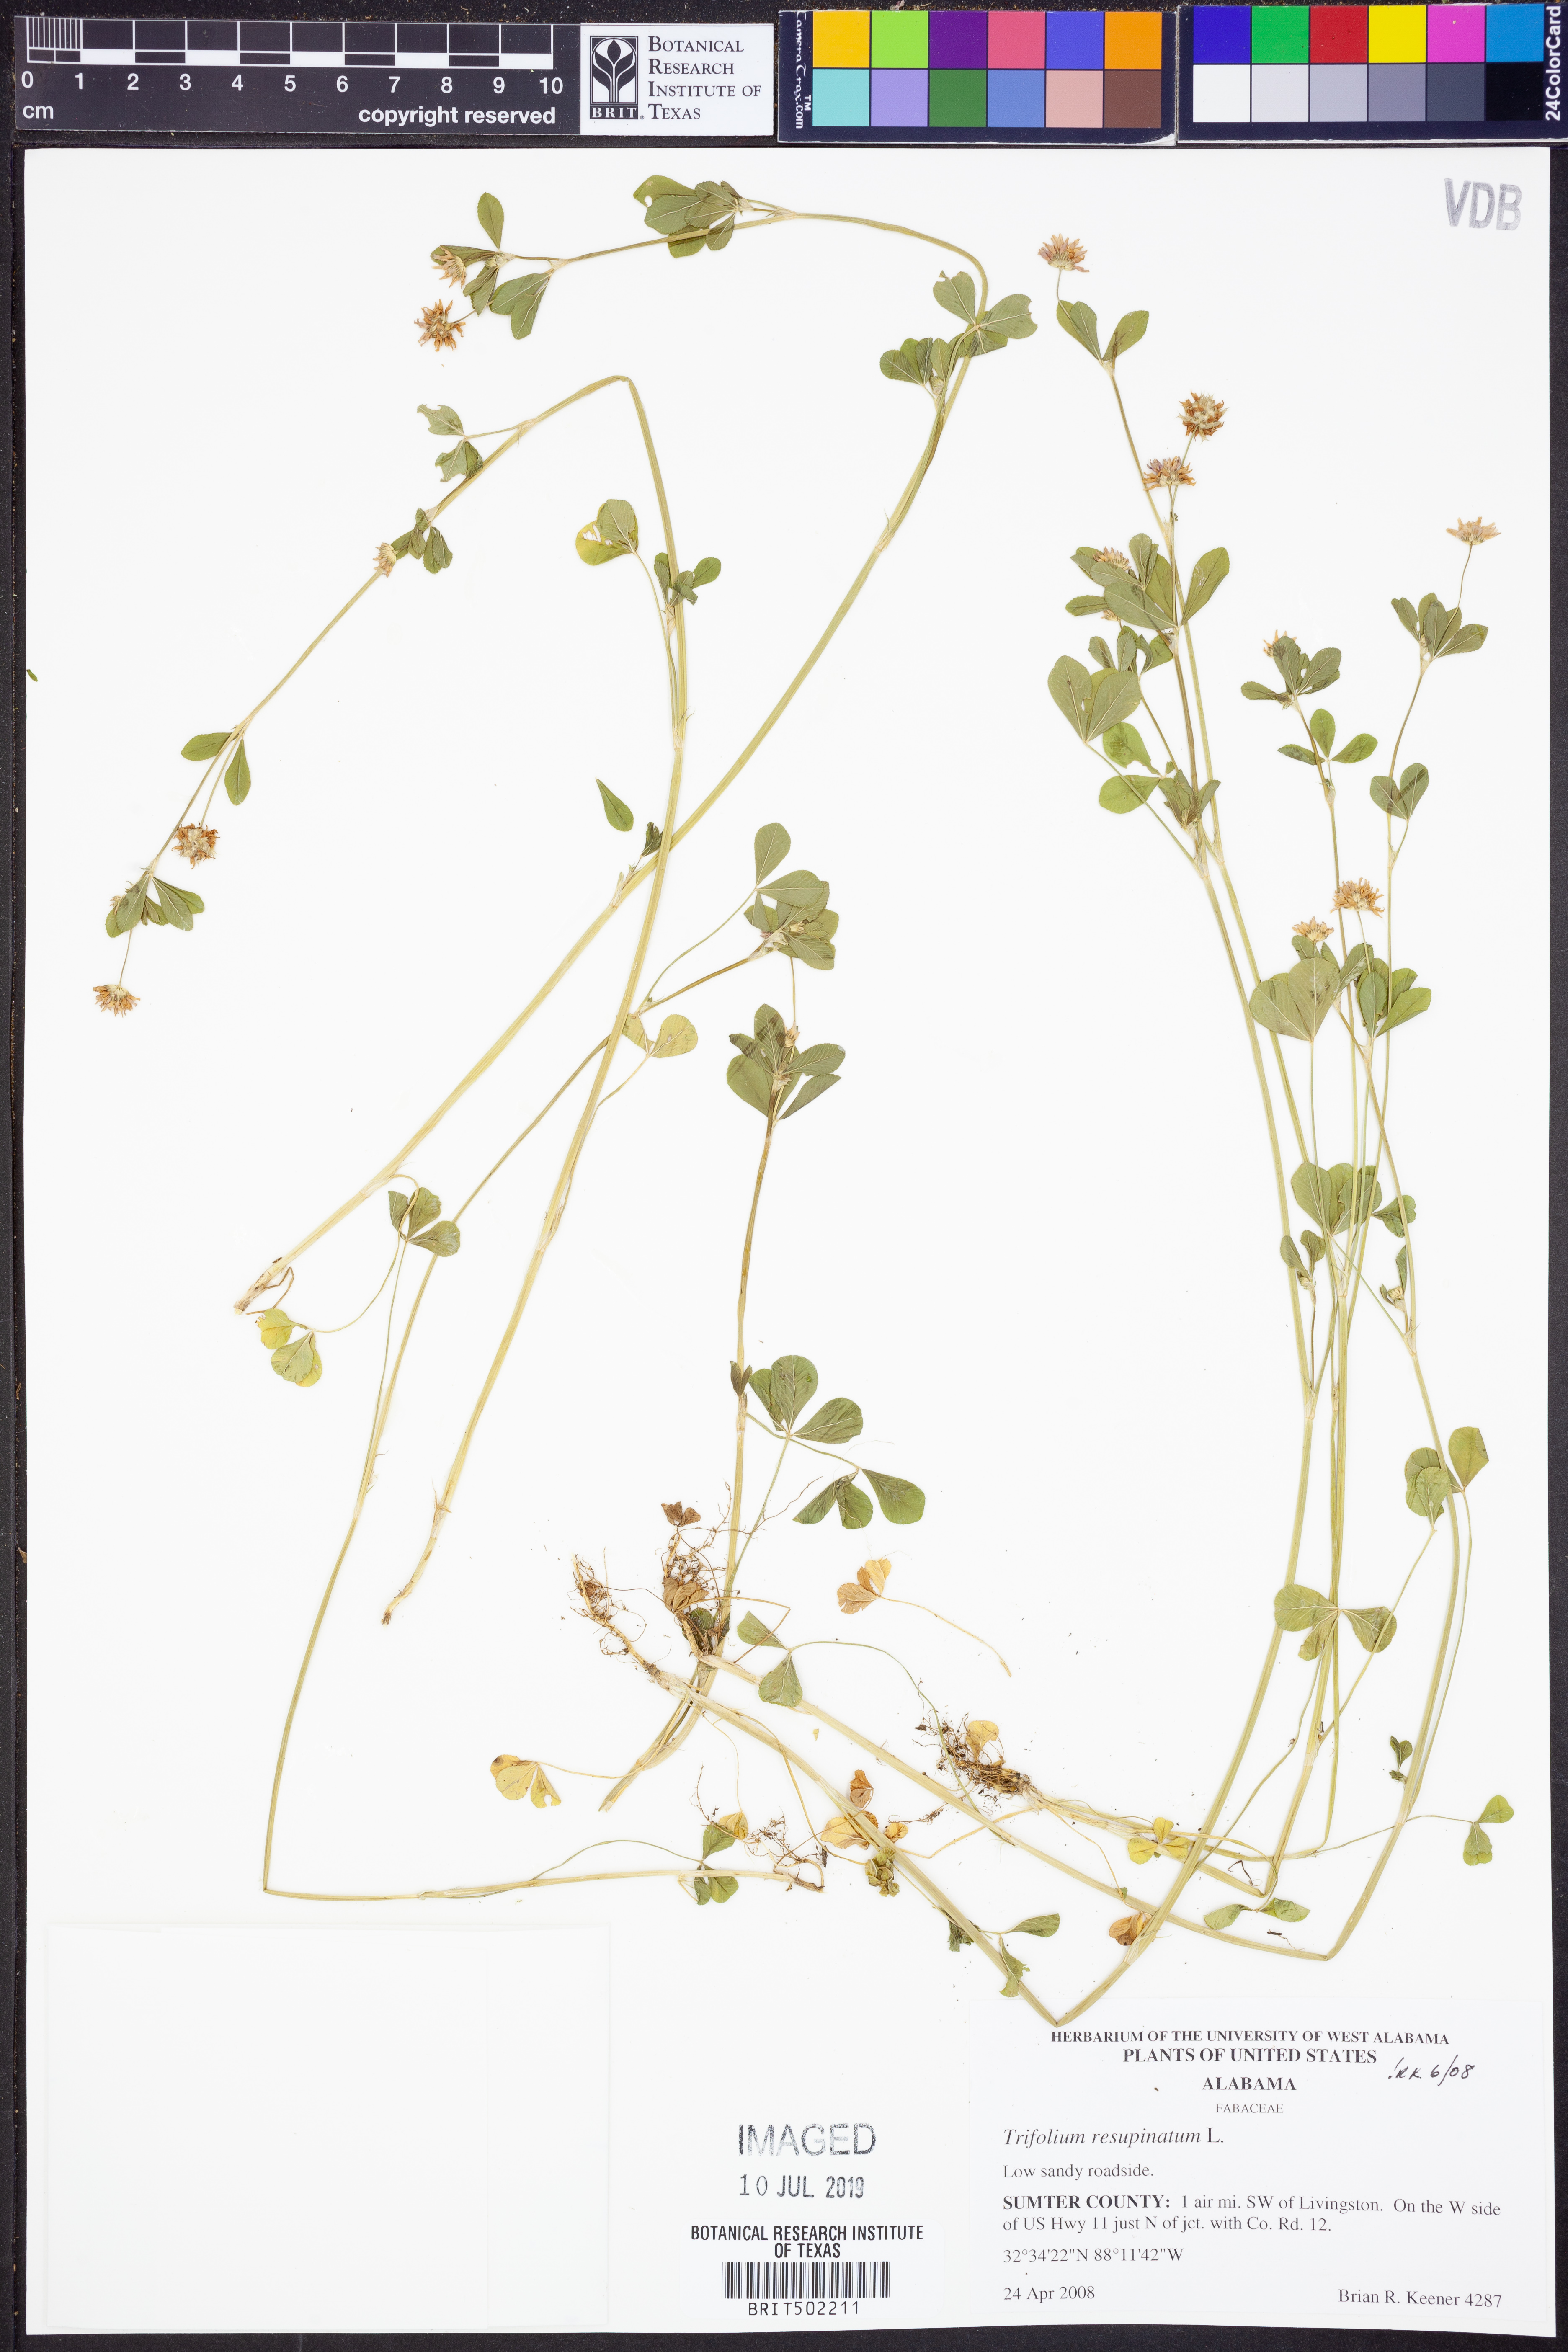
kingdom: Plantae
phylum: Tracheophyta
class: Magnoliopsida
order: Fabales
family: Fabaceae
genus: Trifolium
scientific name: Trifolium resupinatum
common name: Reversed clover
